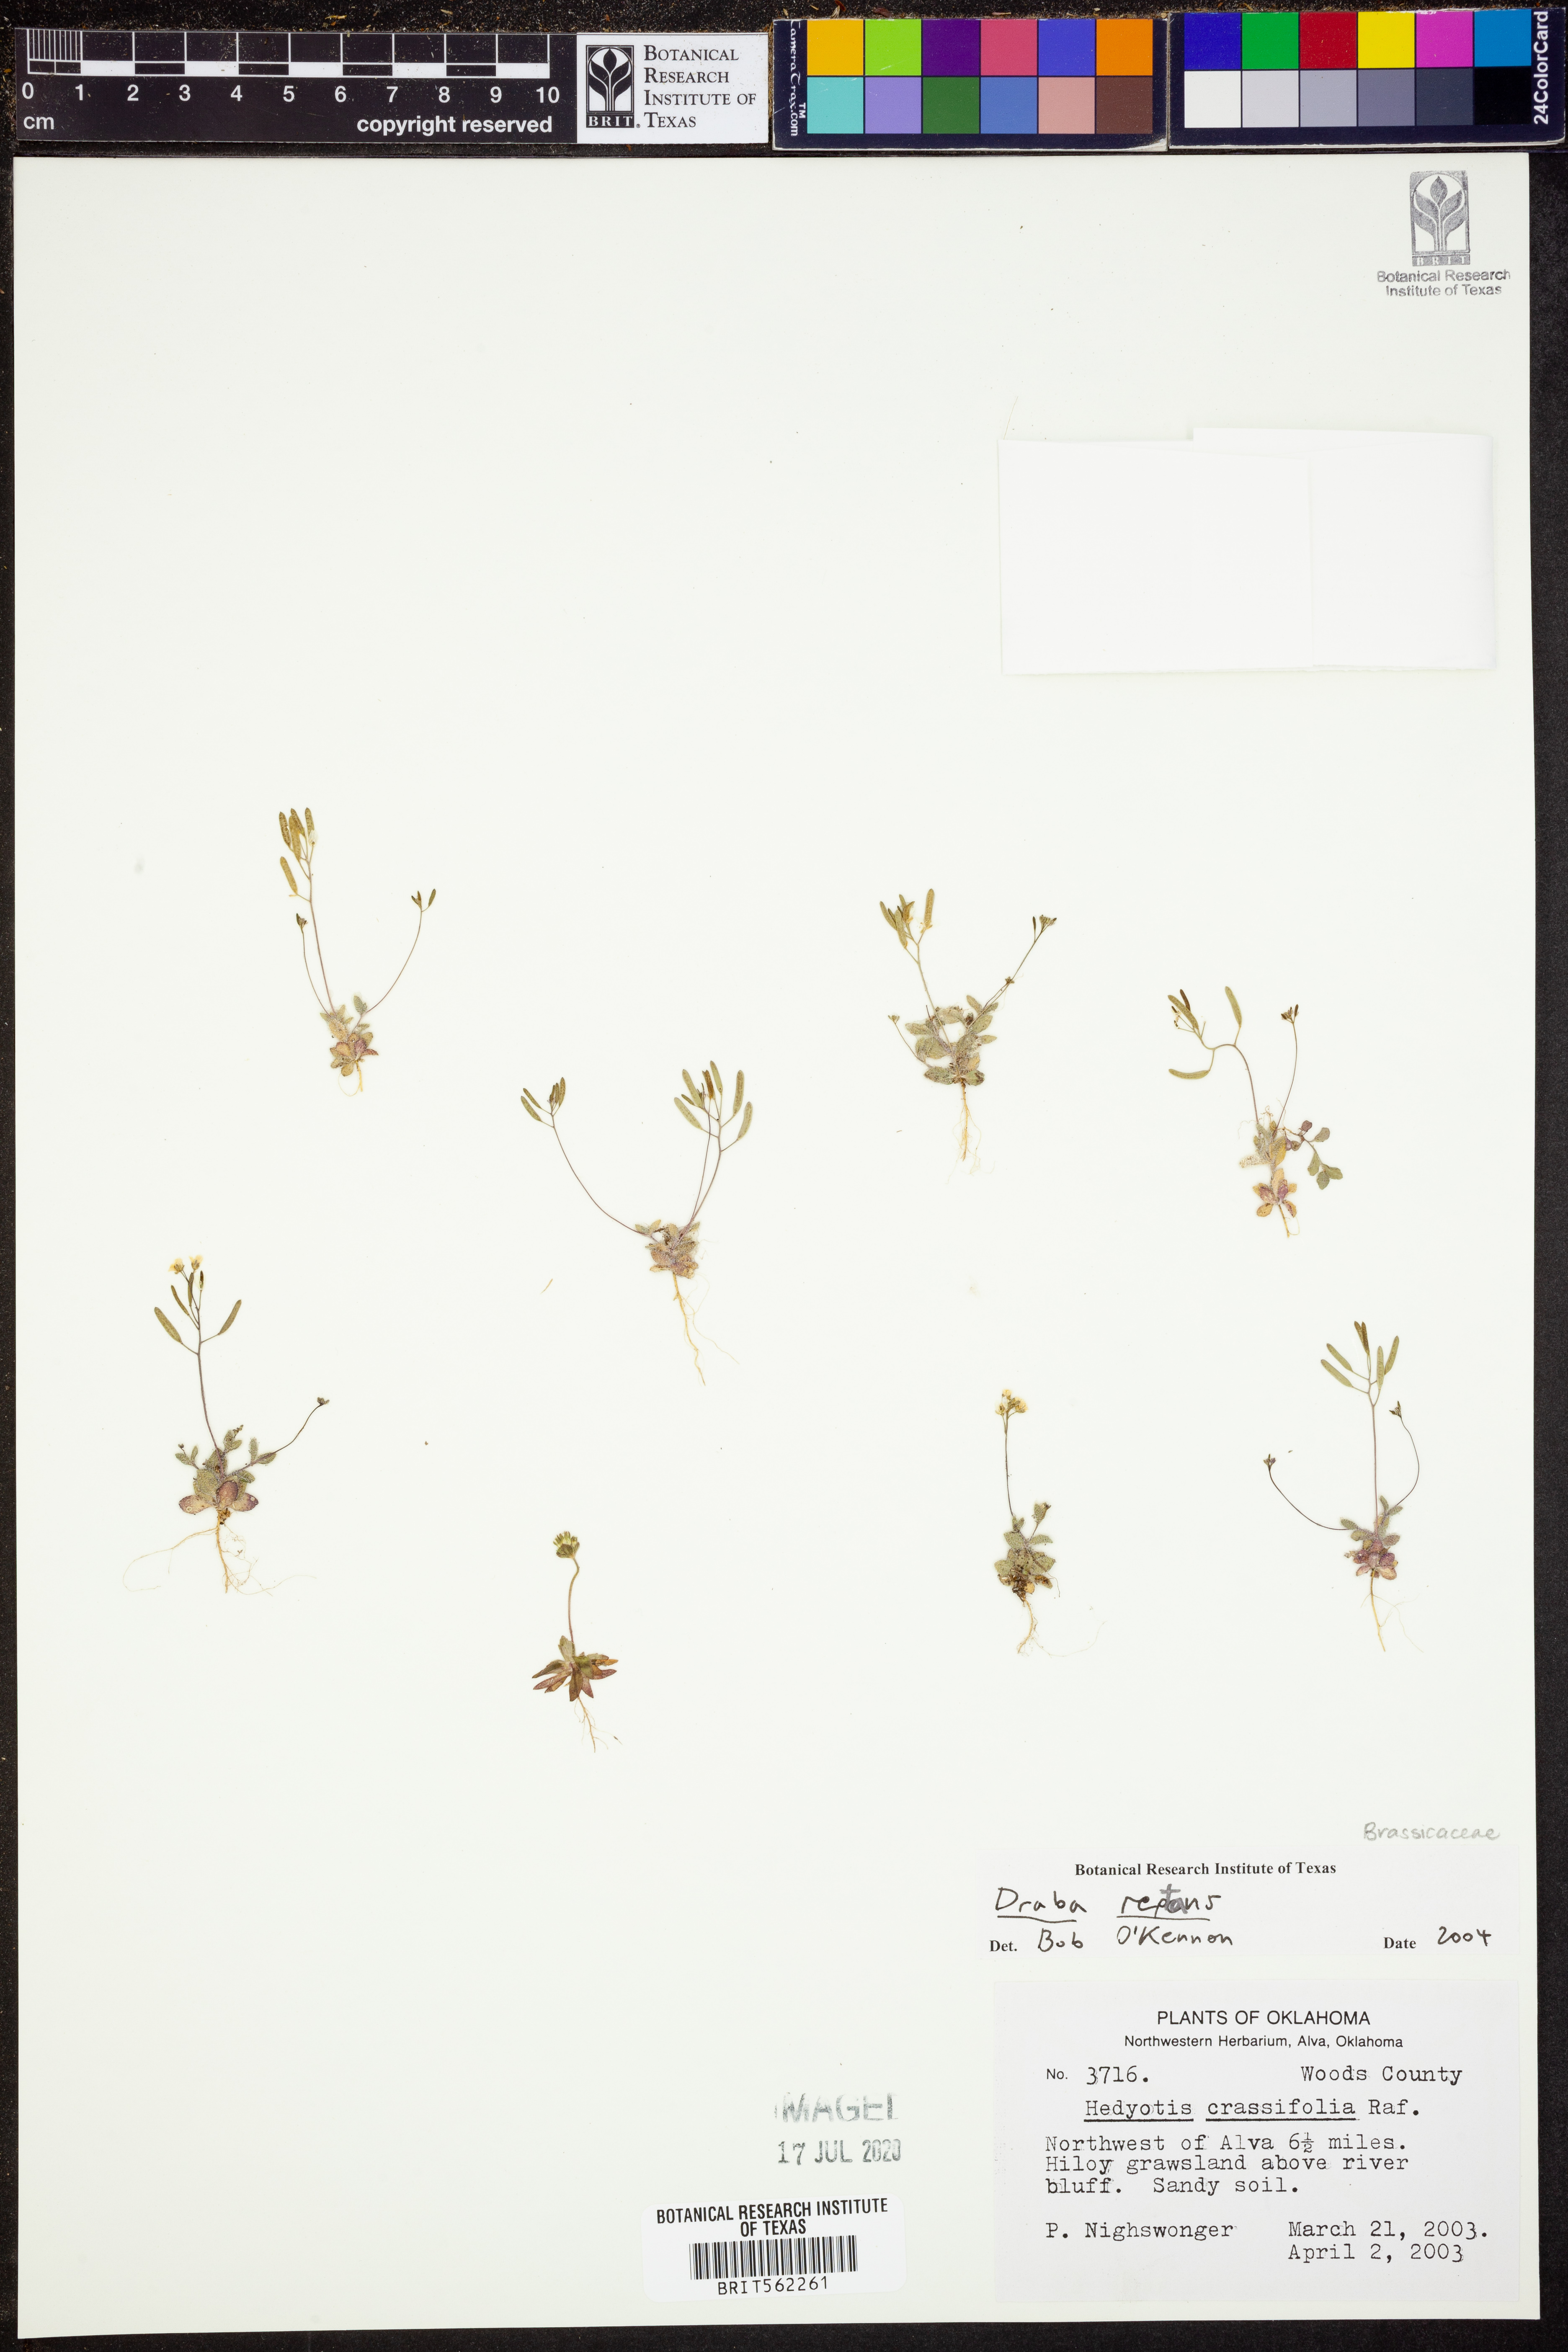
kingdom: Plantae
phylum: Tracheophyta
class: Magnoliopsida
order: Brassicales
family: Brassicaceae
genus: Tomostima
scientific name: Tomostima reptans
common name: Carolina draba
